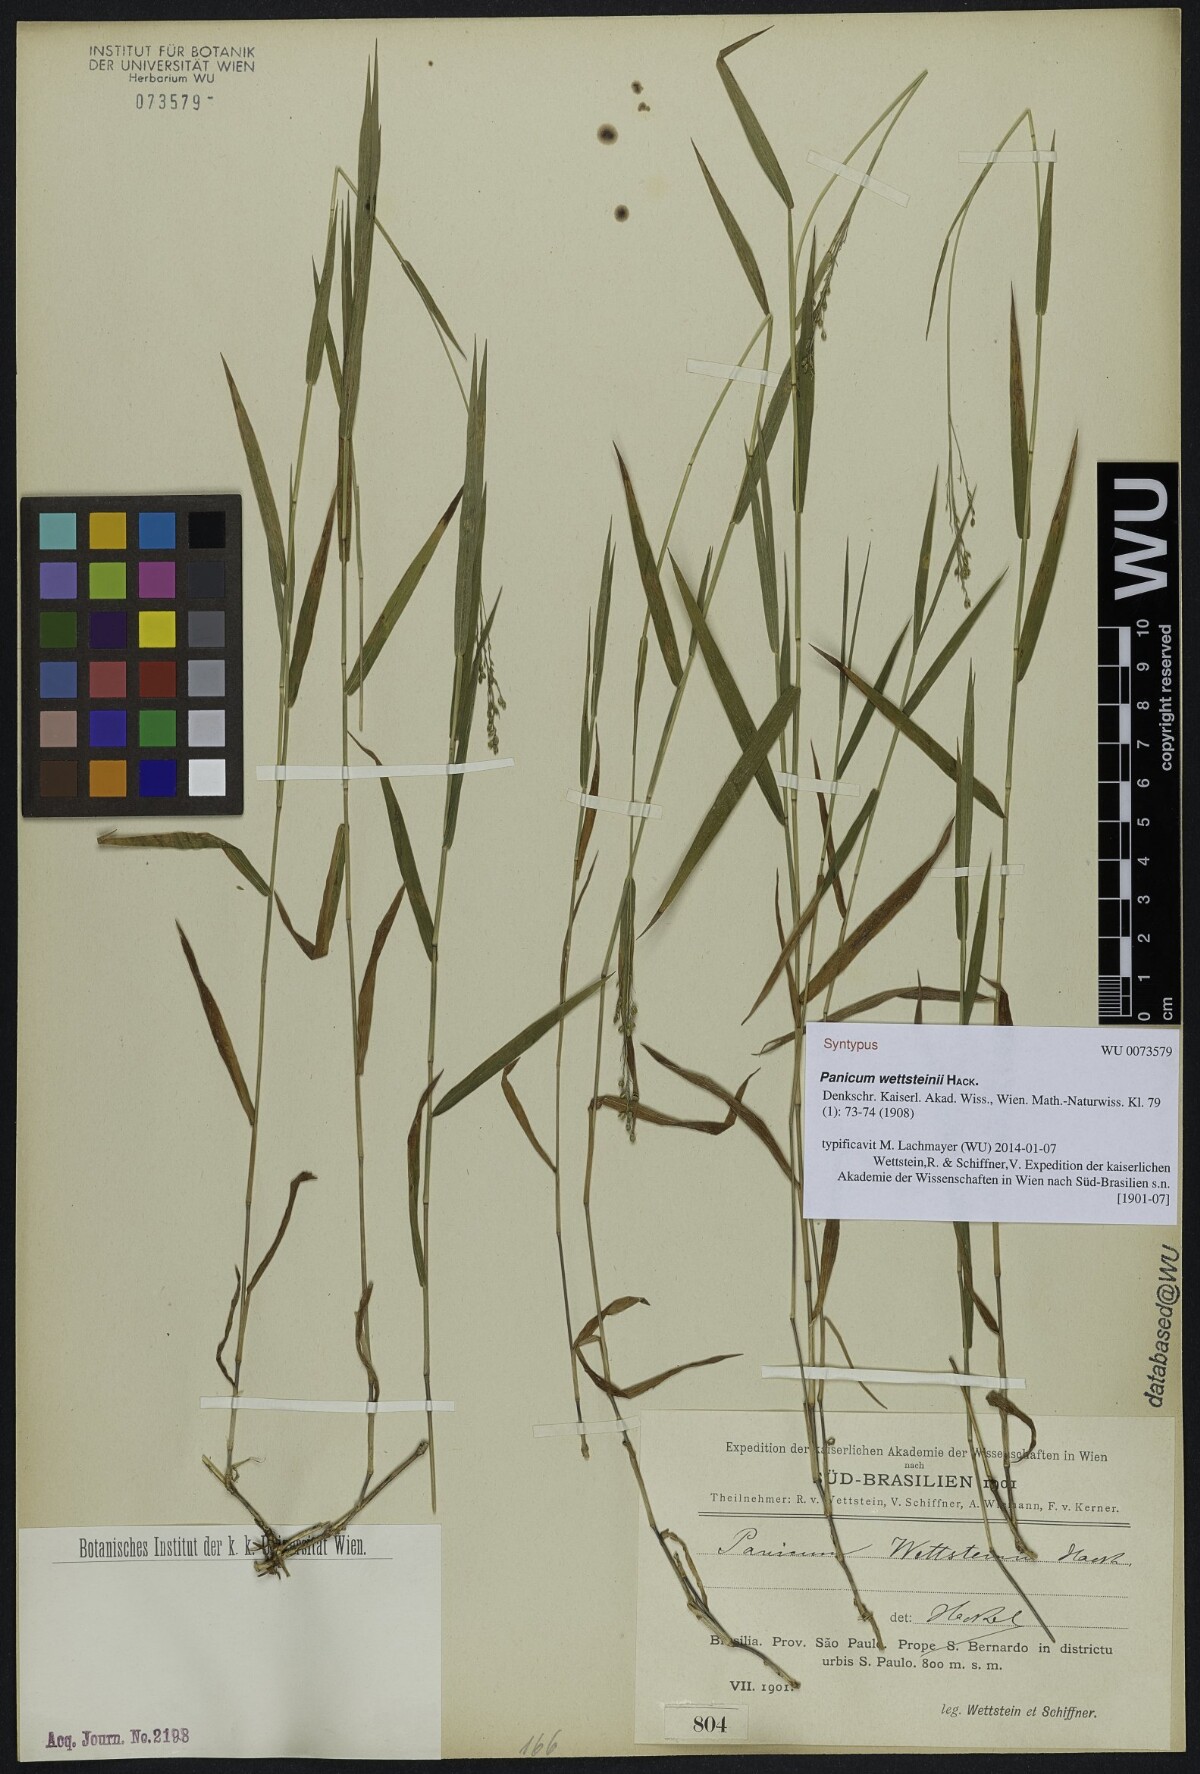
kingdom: Plantae
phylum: Tracheophyta
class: Liliopsida
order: Poales
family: Poaceae
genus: Trichanthecium
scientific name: Trichanthecium wettsteinii
